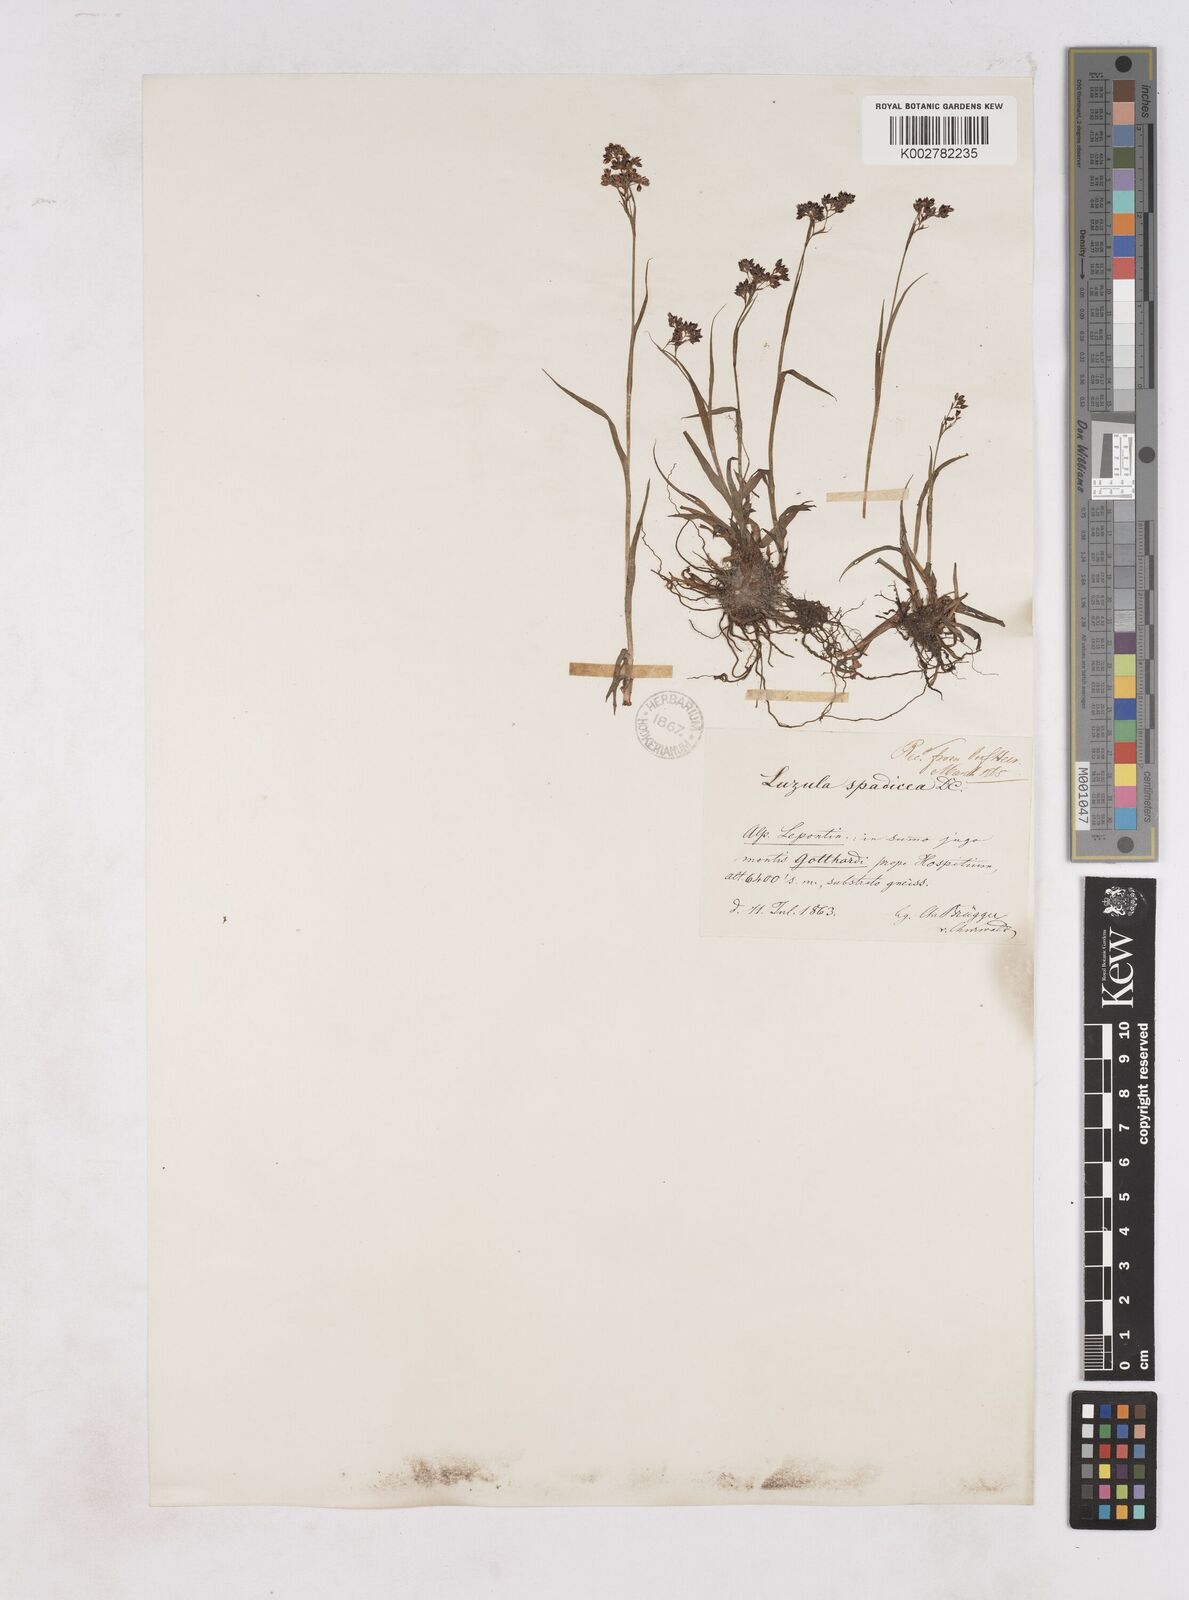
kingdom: Plantae
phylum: Tracheophyta
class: Liliopsida
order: Poales
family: Juncaceae
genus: Luzula
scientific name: Luzula alpinopilosa
